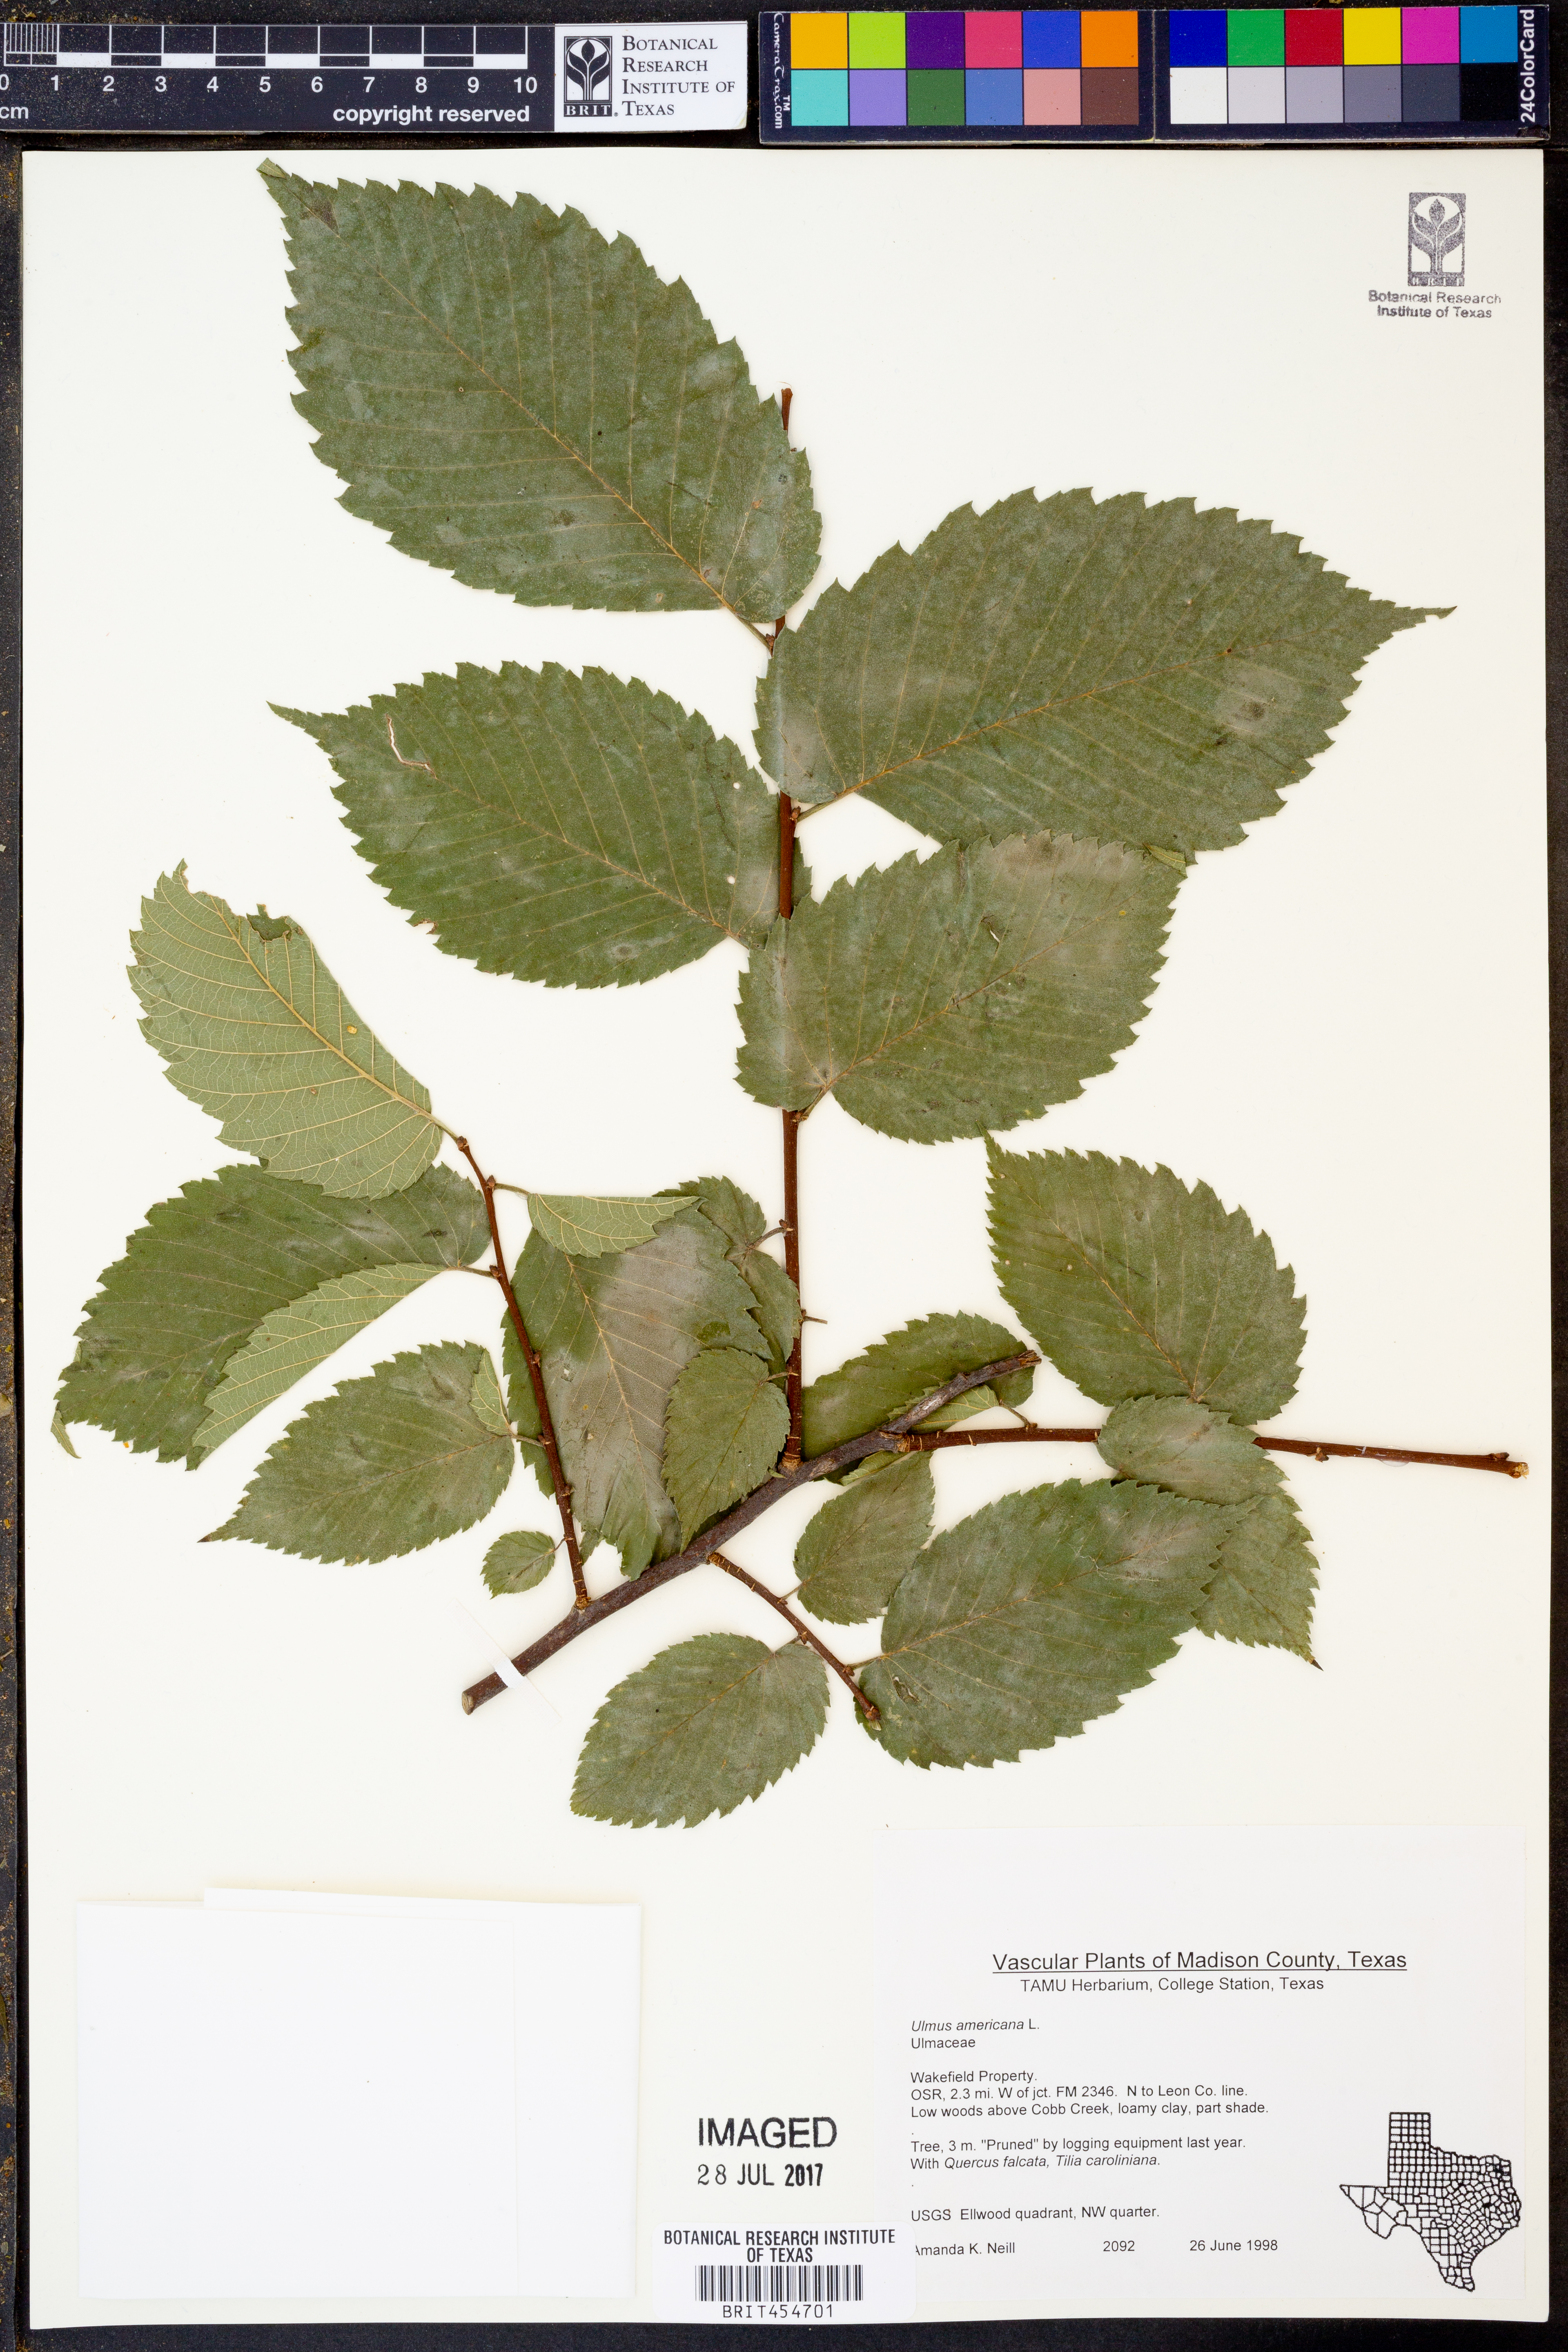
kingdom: Plantae
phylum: Tracheophyta
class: Magnoliopsida
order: Rosales
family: Ulmaceae
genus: Ulmus
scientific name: Ulmus americana
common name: American elm
